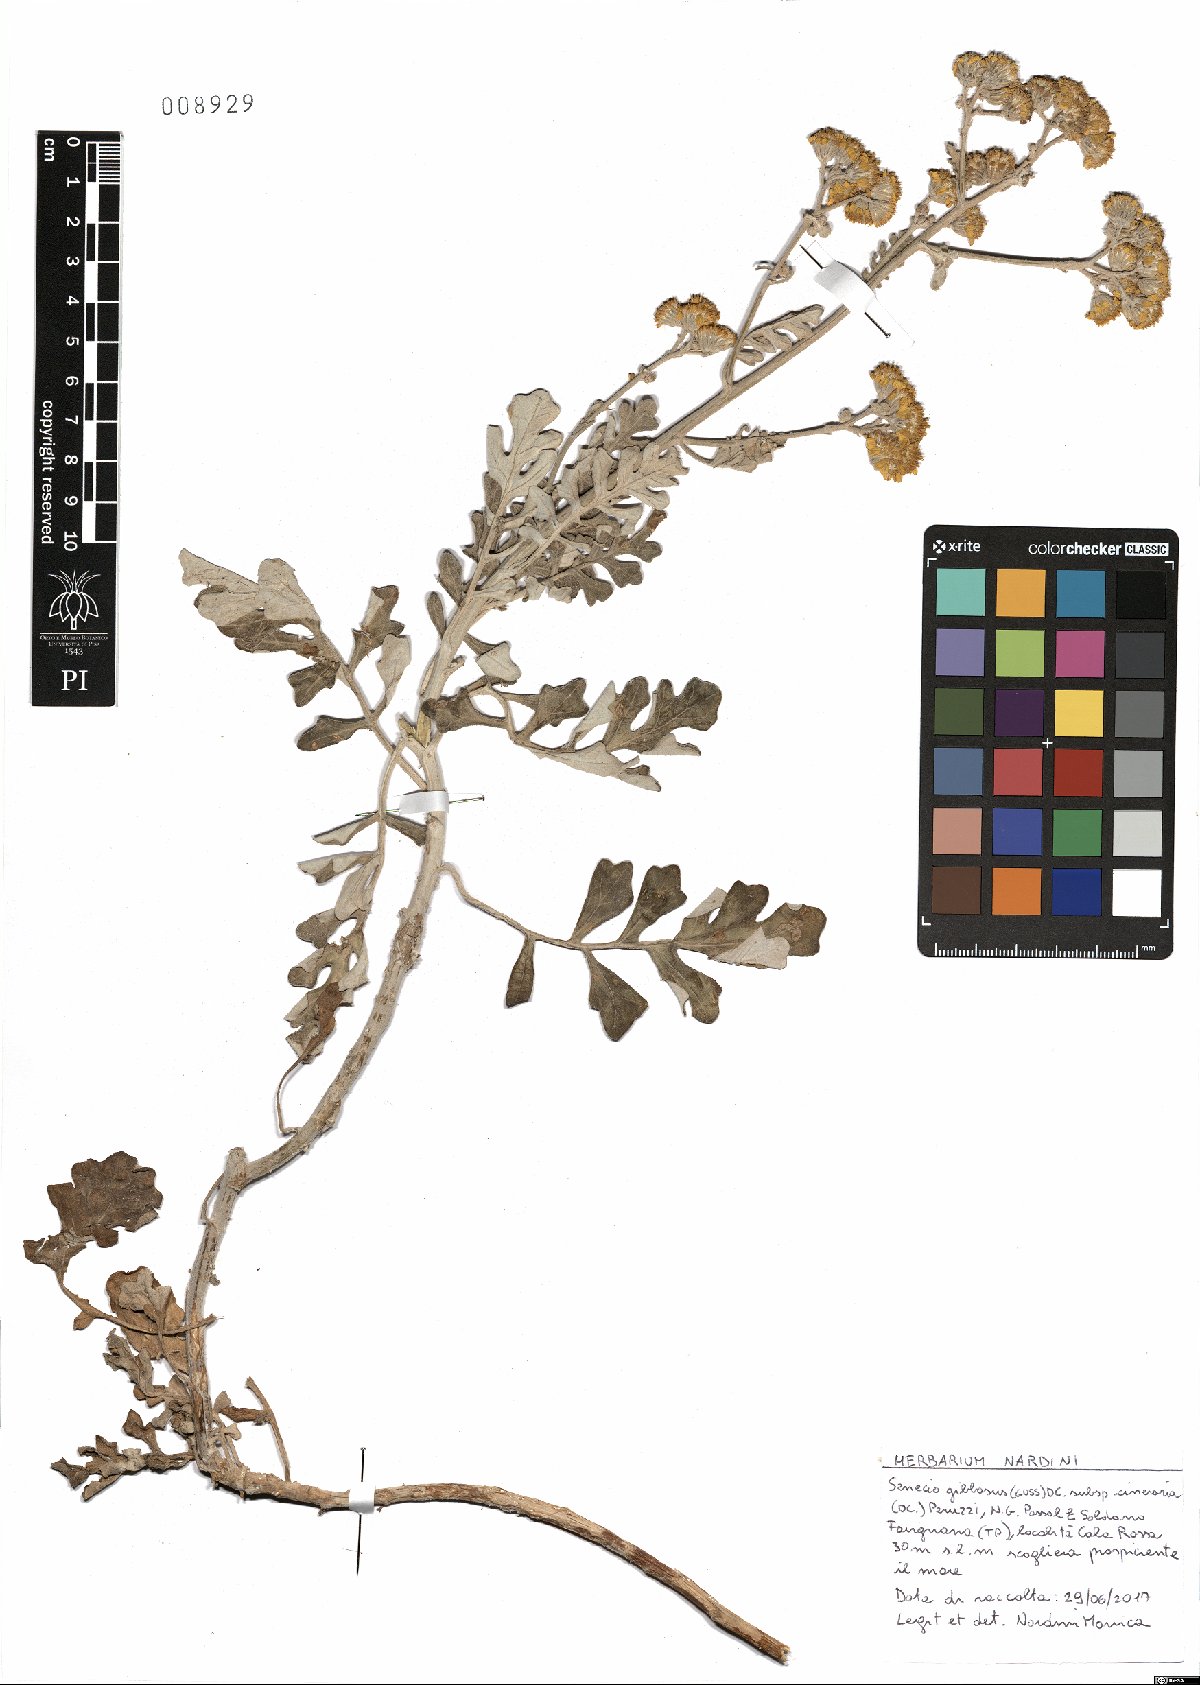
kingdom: Plantae
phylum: Tracheophyta
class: Magnoliopsida
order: Asterales
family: Asteraceae
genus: Jacobaea
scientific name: Jacobaea maritima
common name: Silver ragwort
